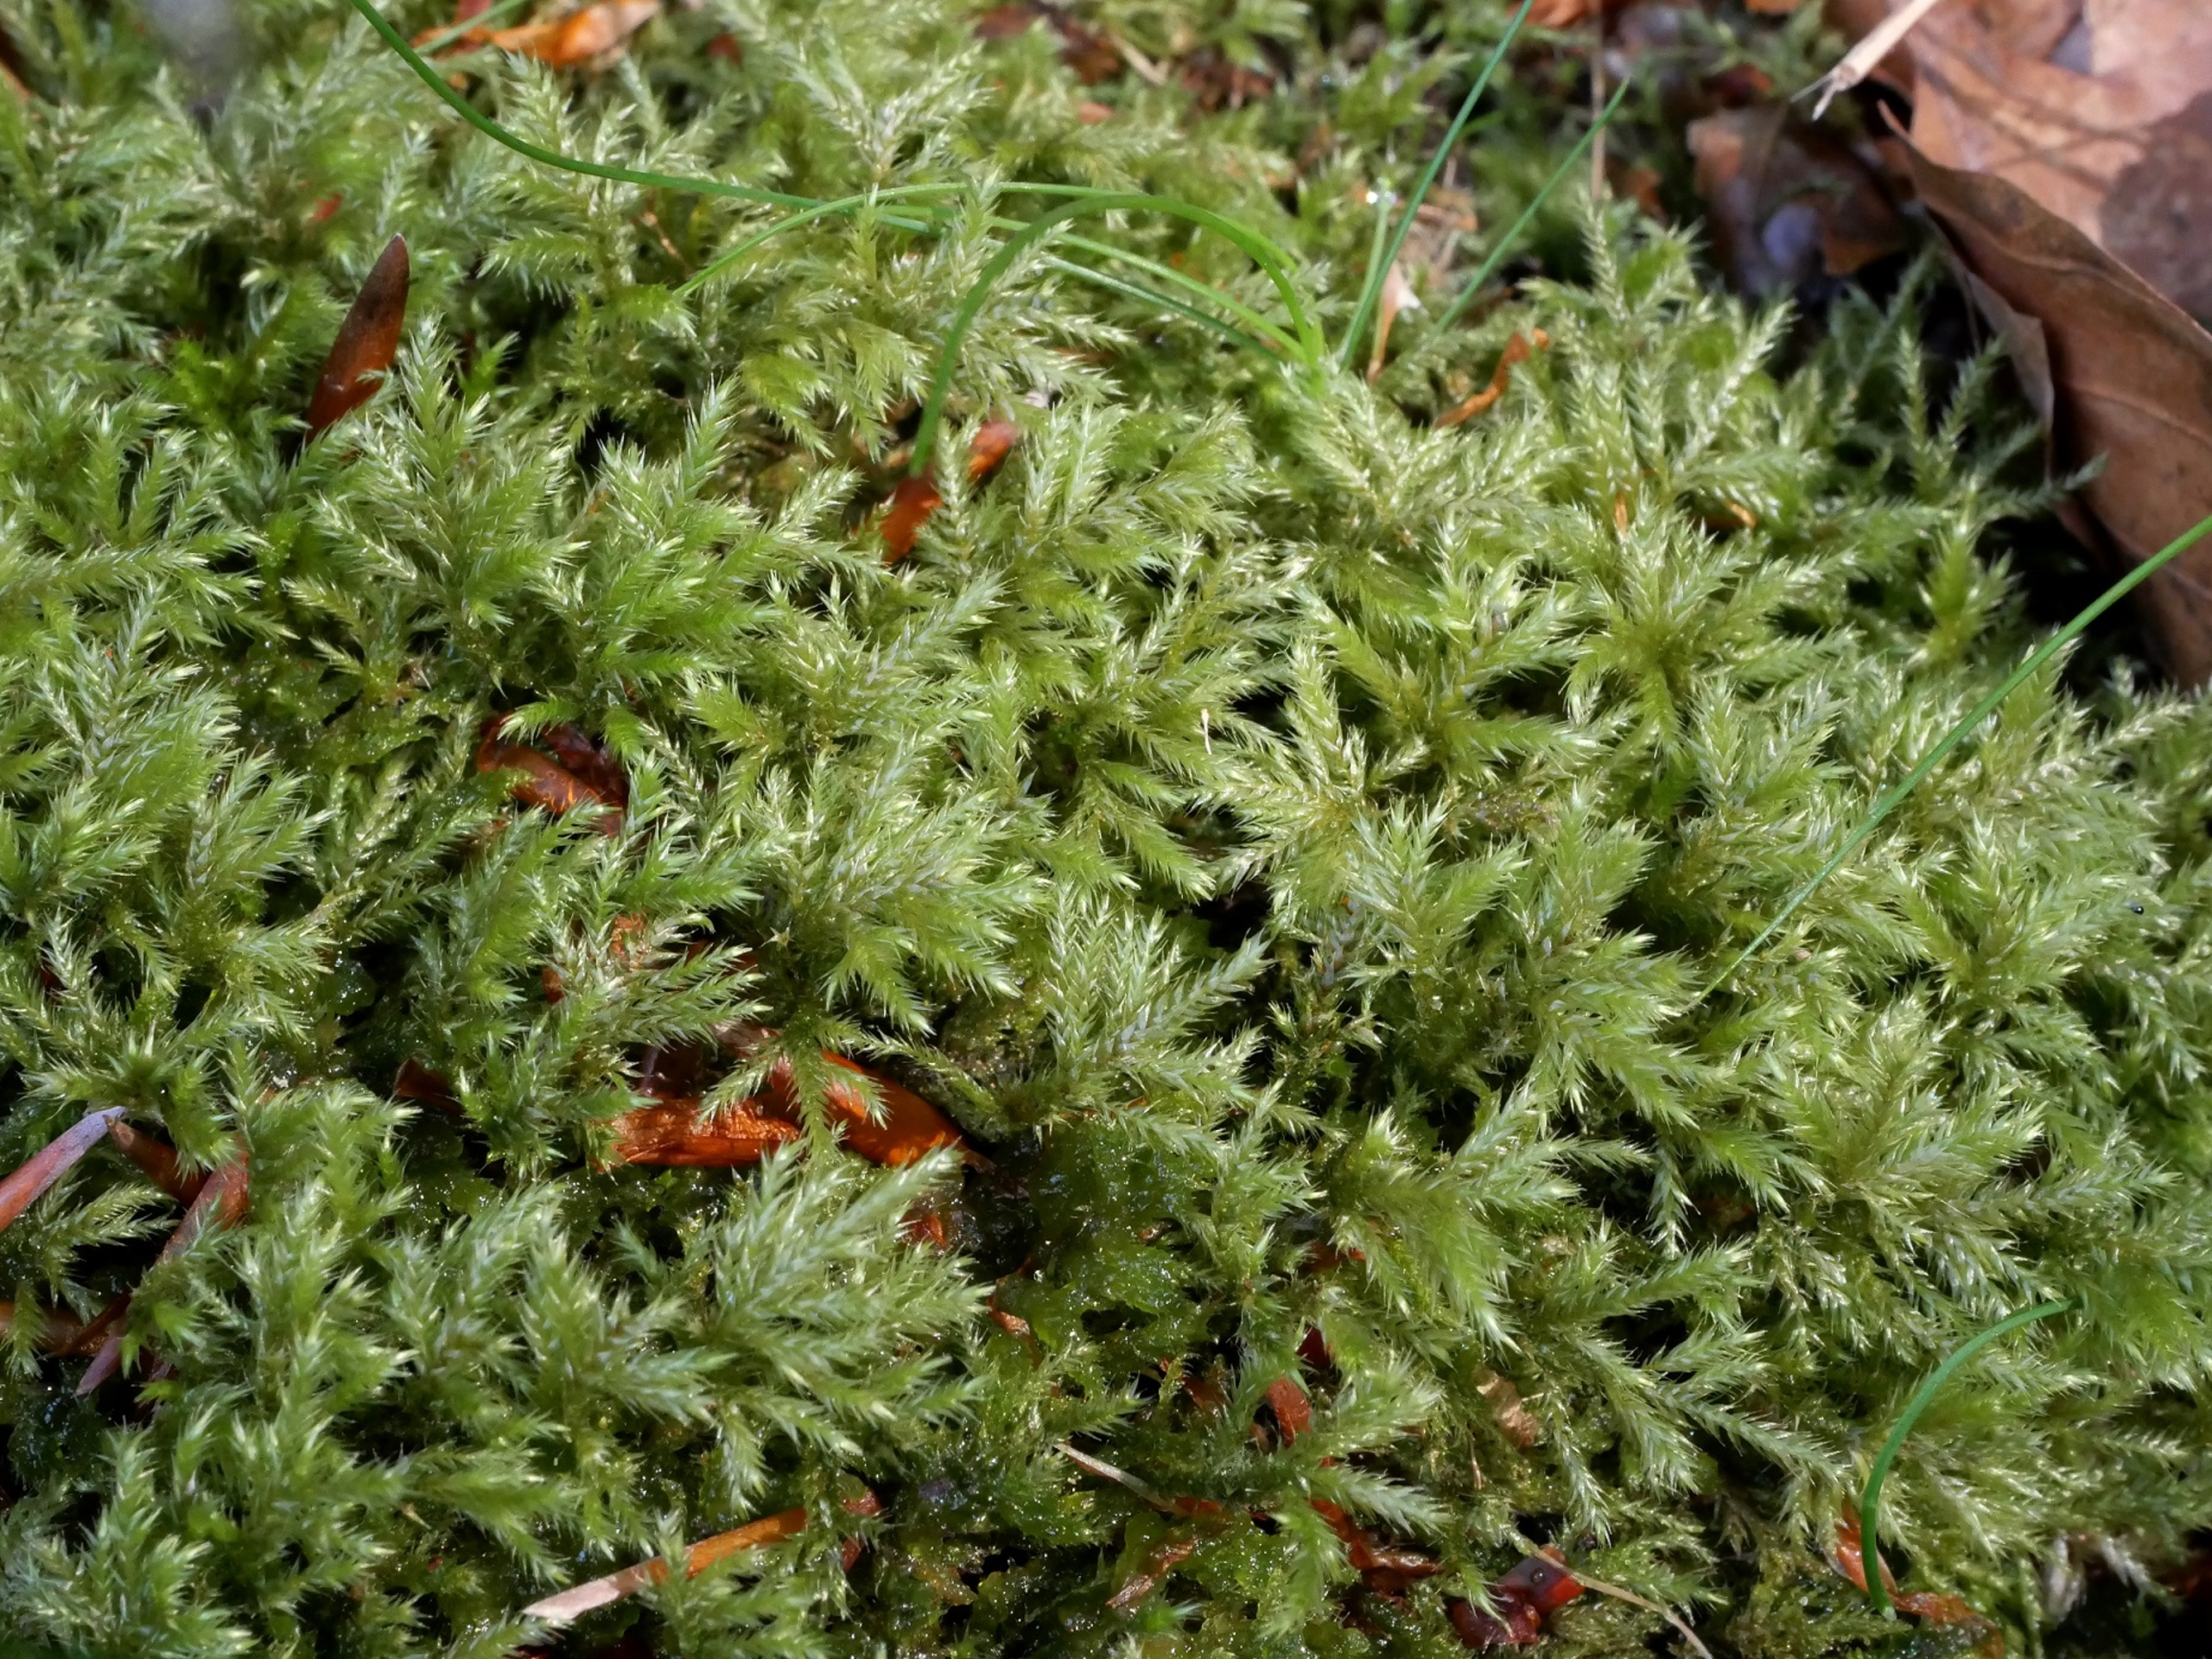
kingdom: Plantae
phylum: Bryophyta
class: Bryopsida
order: Hypnales
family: Lembophyllaceae
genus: Pseudisothecium
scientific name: Pseudisothecium myosuroides
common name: Slank stammemos
